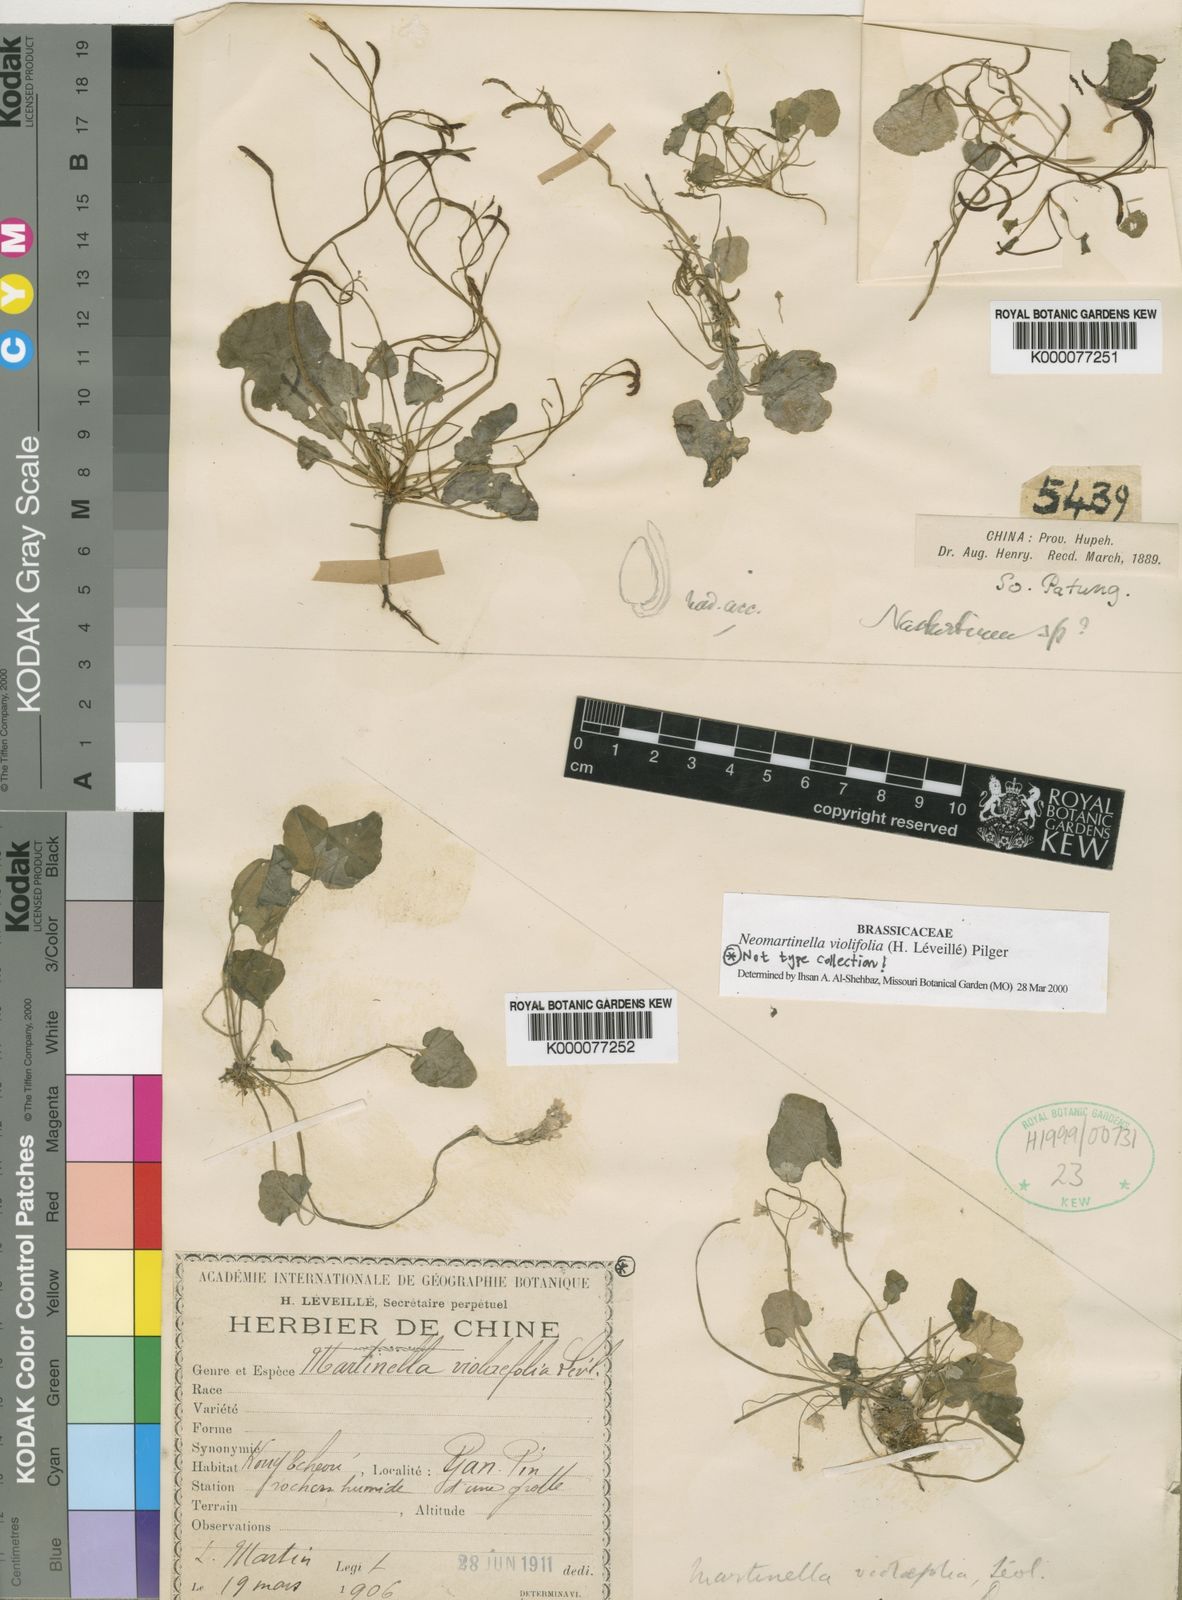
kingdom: Plantae
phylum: Tracheophyta
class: Magnoliopsida
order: Brassicales
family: Brassicaceae
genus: Eutrema
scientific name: Eutrema violifolium
